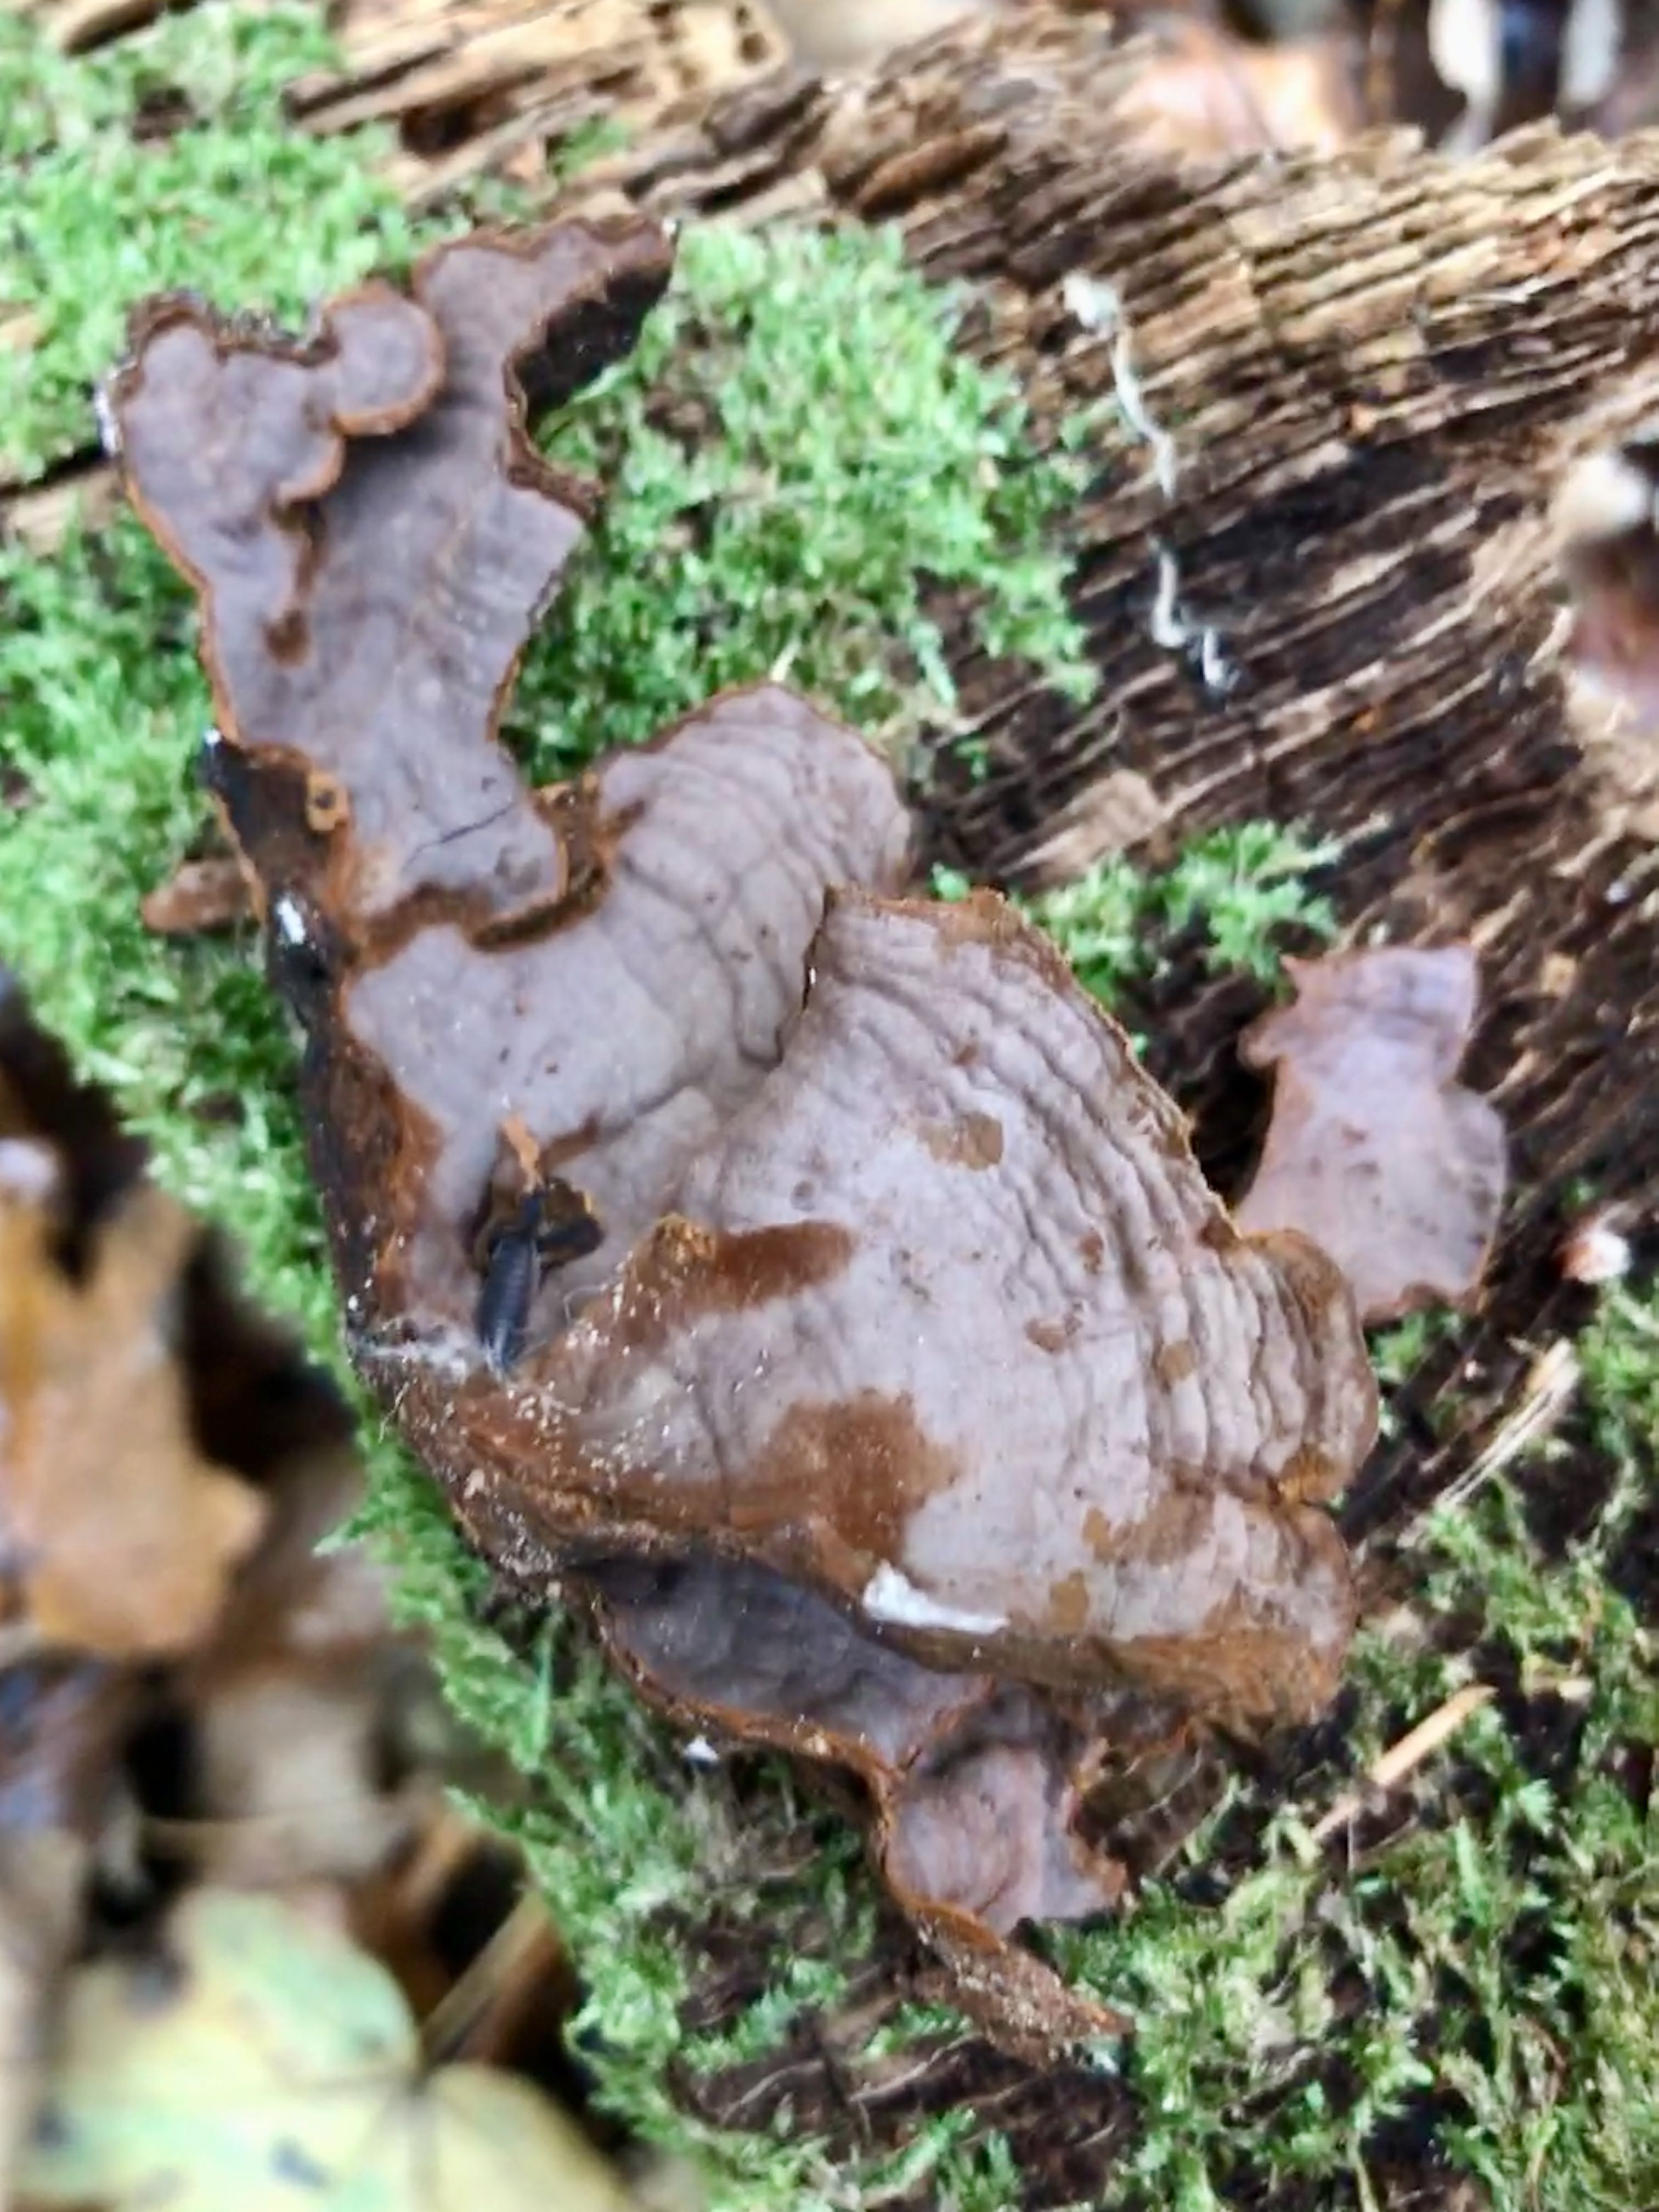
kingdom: Fungi
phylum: Basidiomycota
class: Agaricomycetes
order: Hymenochaetales
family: Hymenochaetaceae
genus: Hymenochaete
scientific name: Hymenochaete rubiginosa
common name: stiv ruslædersvamp
